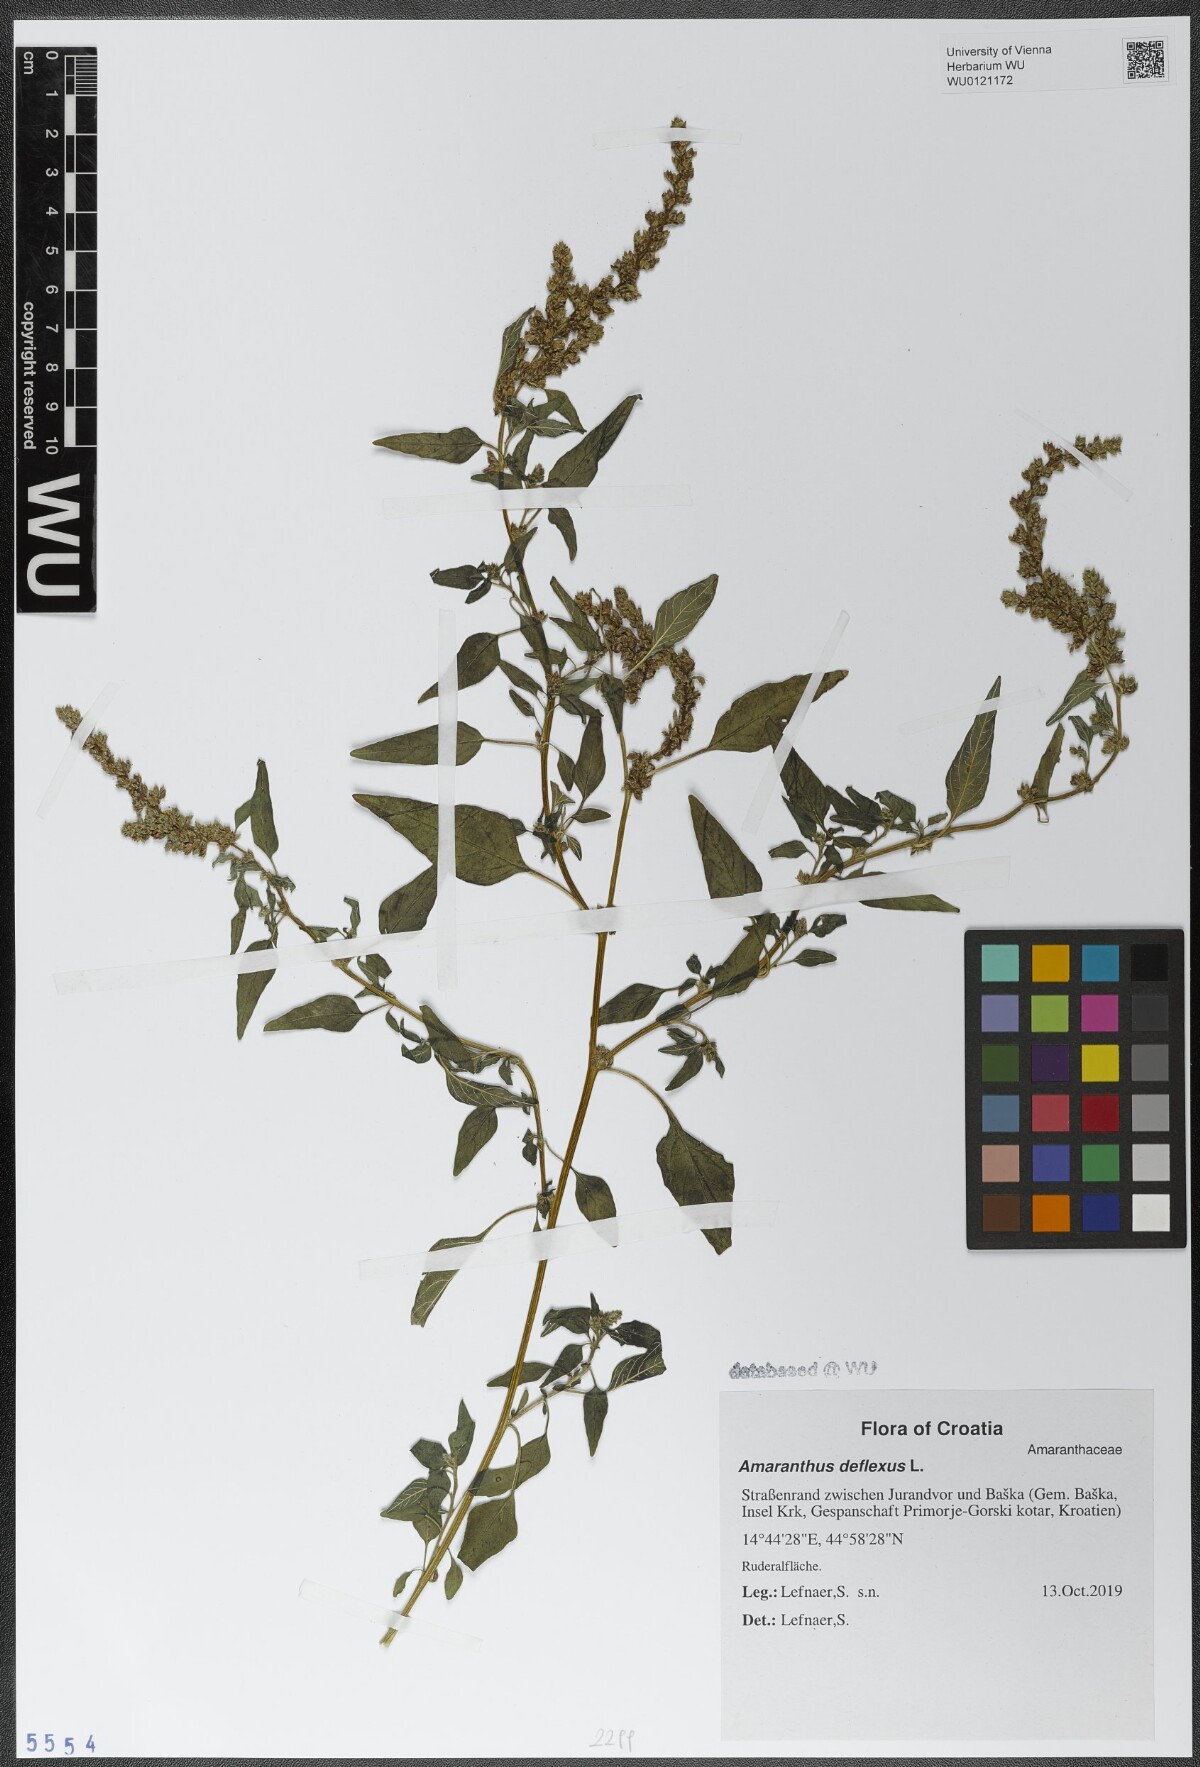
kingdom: Plantae
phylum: Tracheophyta
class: Magnoliopsida
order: Caryophyllales
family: Amaranthaceae
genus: Amaranthus
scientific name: Amaranthus deflexus
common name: Perennial pigweed
